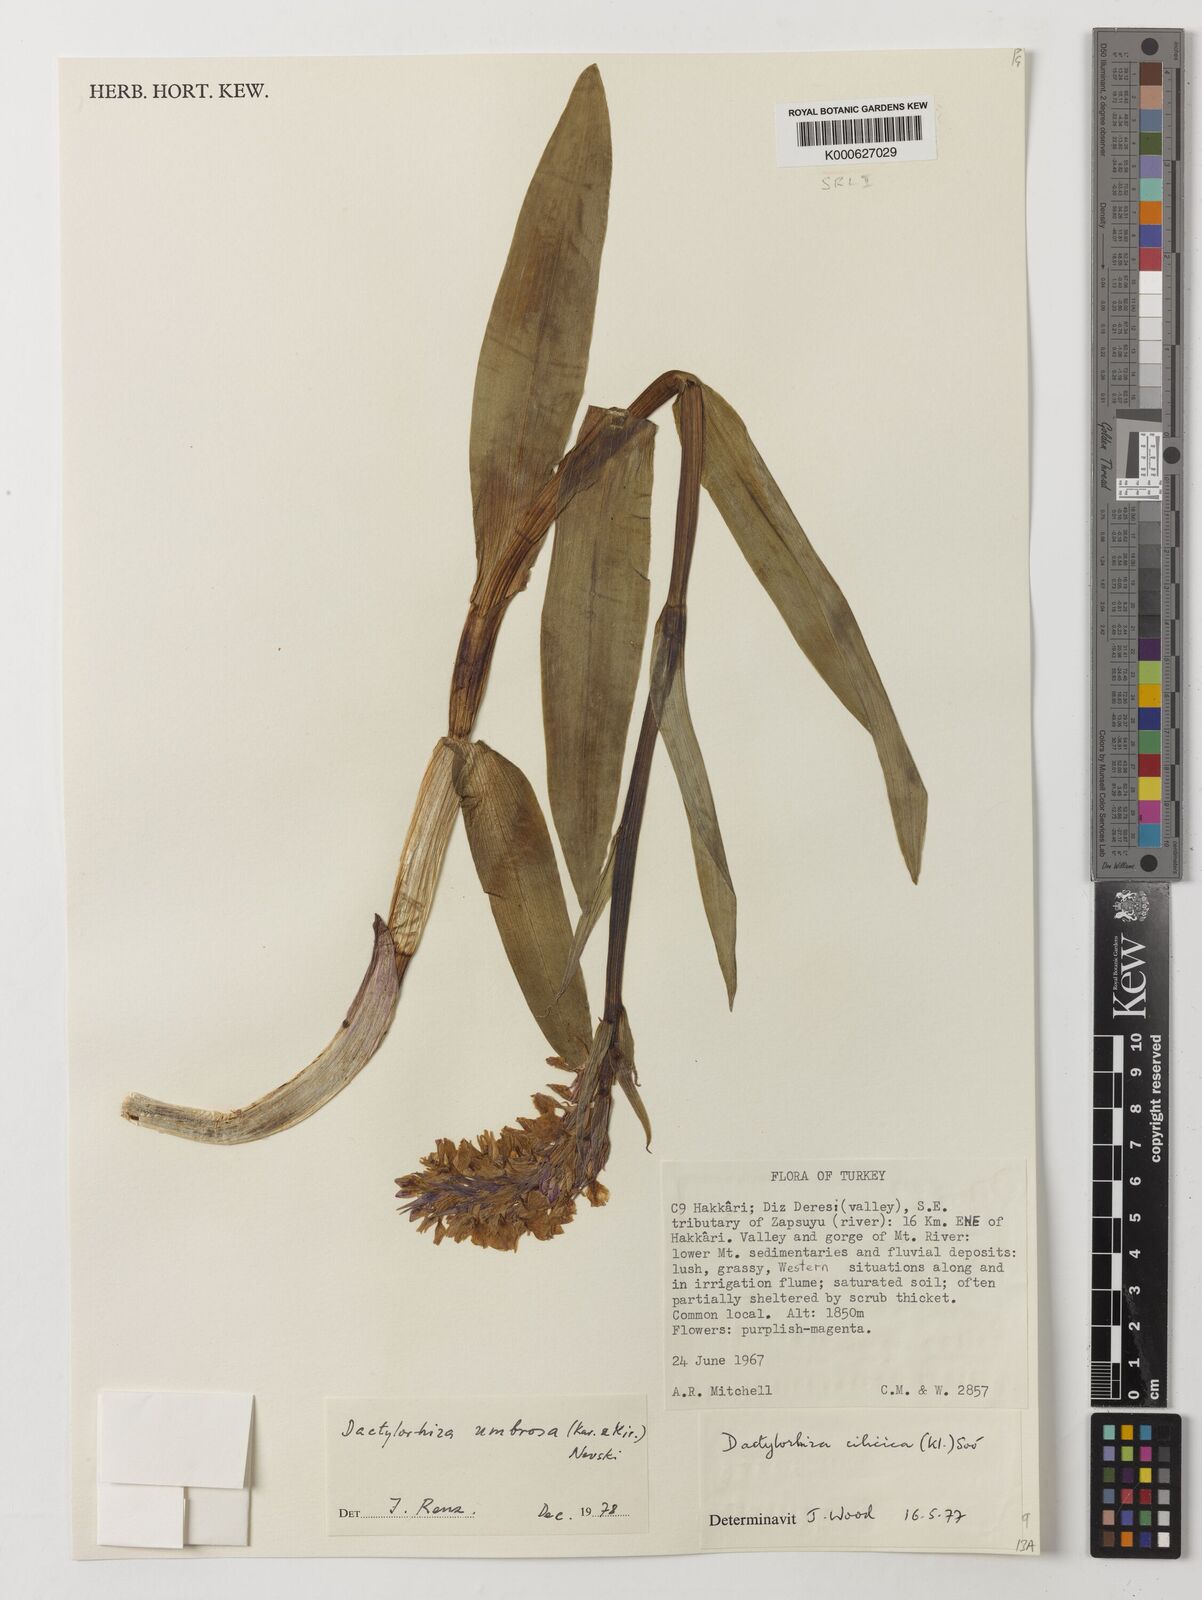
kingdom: Plantae
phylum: Tracheophyta
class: Liliopsida
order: Asparagales
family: Orchidaceae
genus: Dactylorhiza
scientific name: Dactylorhiza
